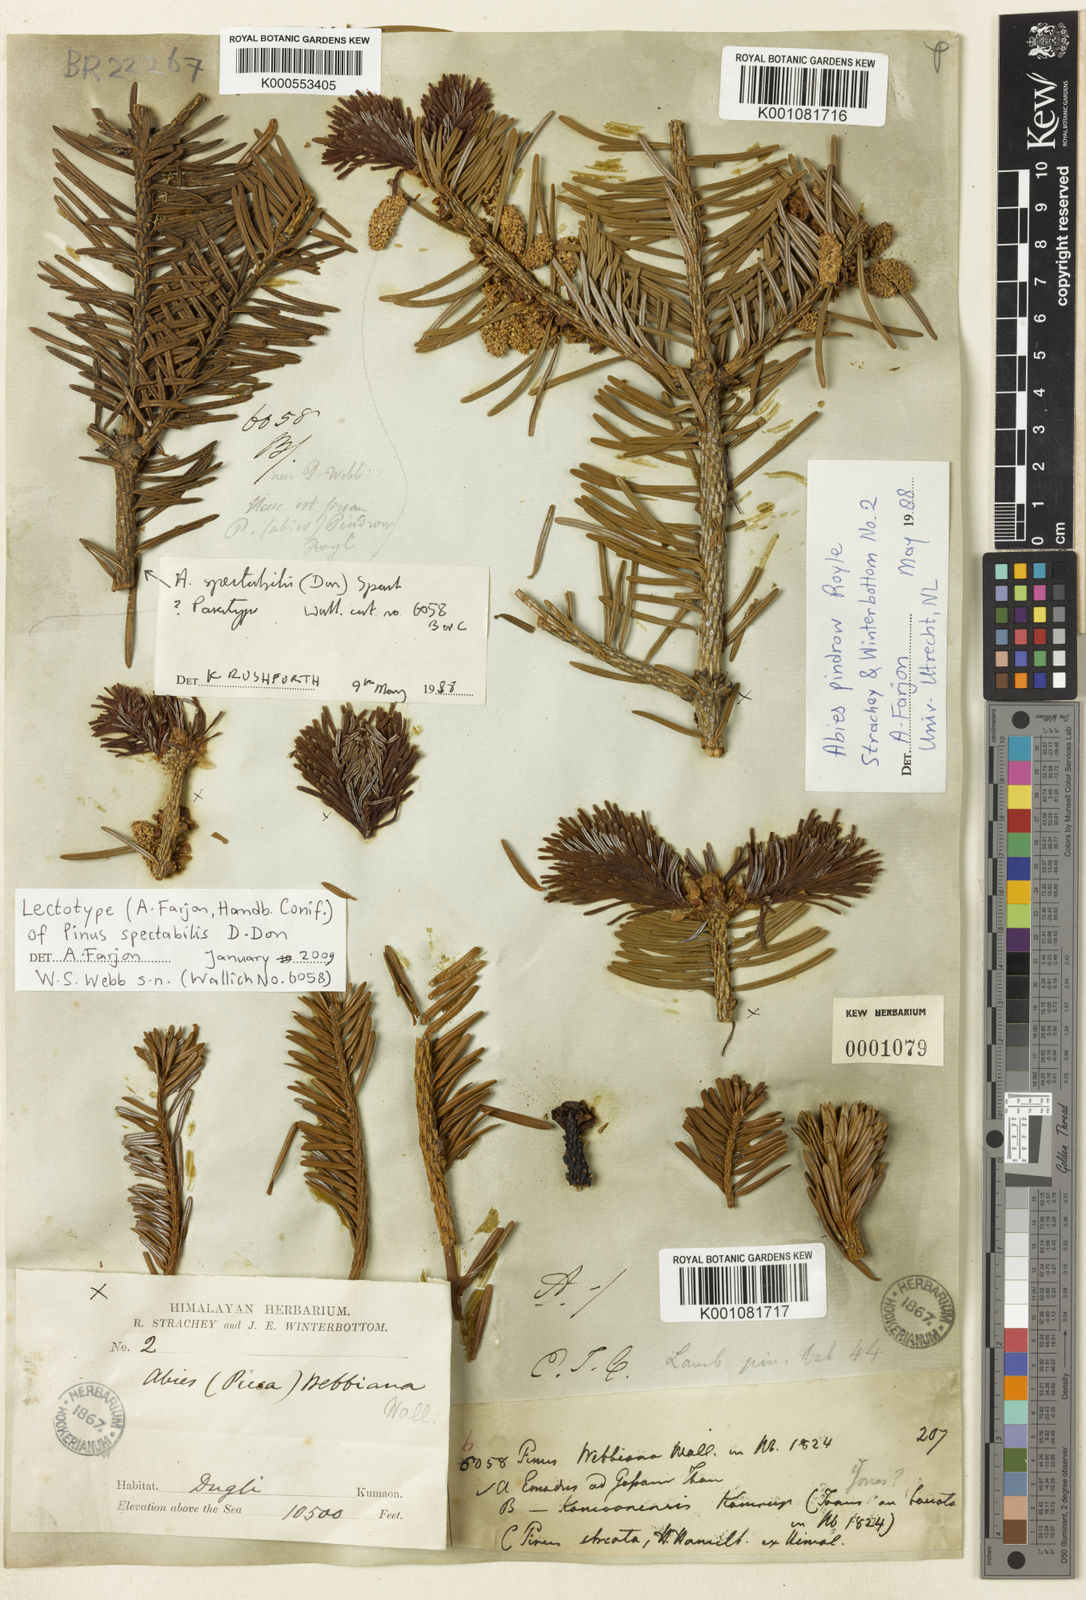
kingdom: Plantae
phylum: Tracheophyta
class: Pinopsida
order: Pinales
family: Pinaceae
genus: Abies
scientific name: Abies spectabilis
